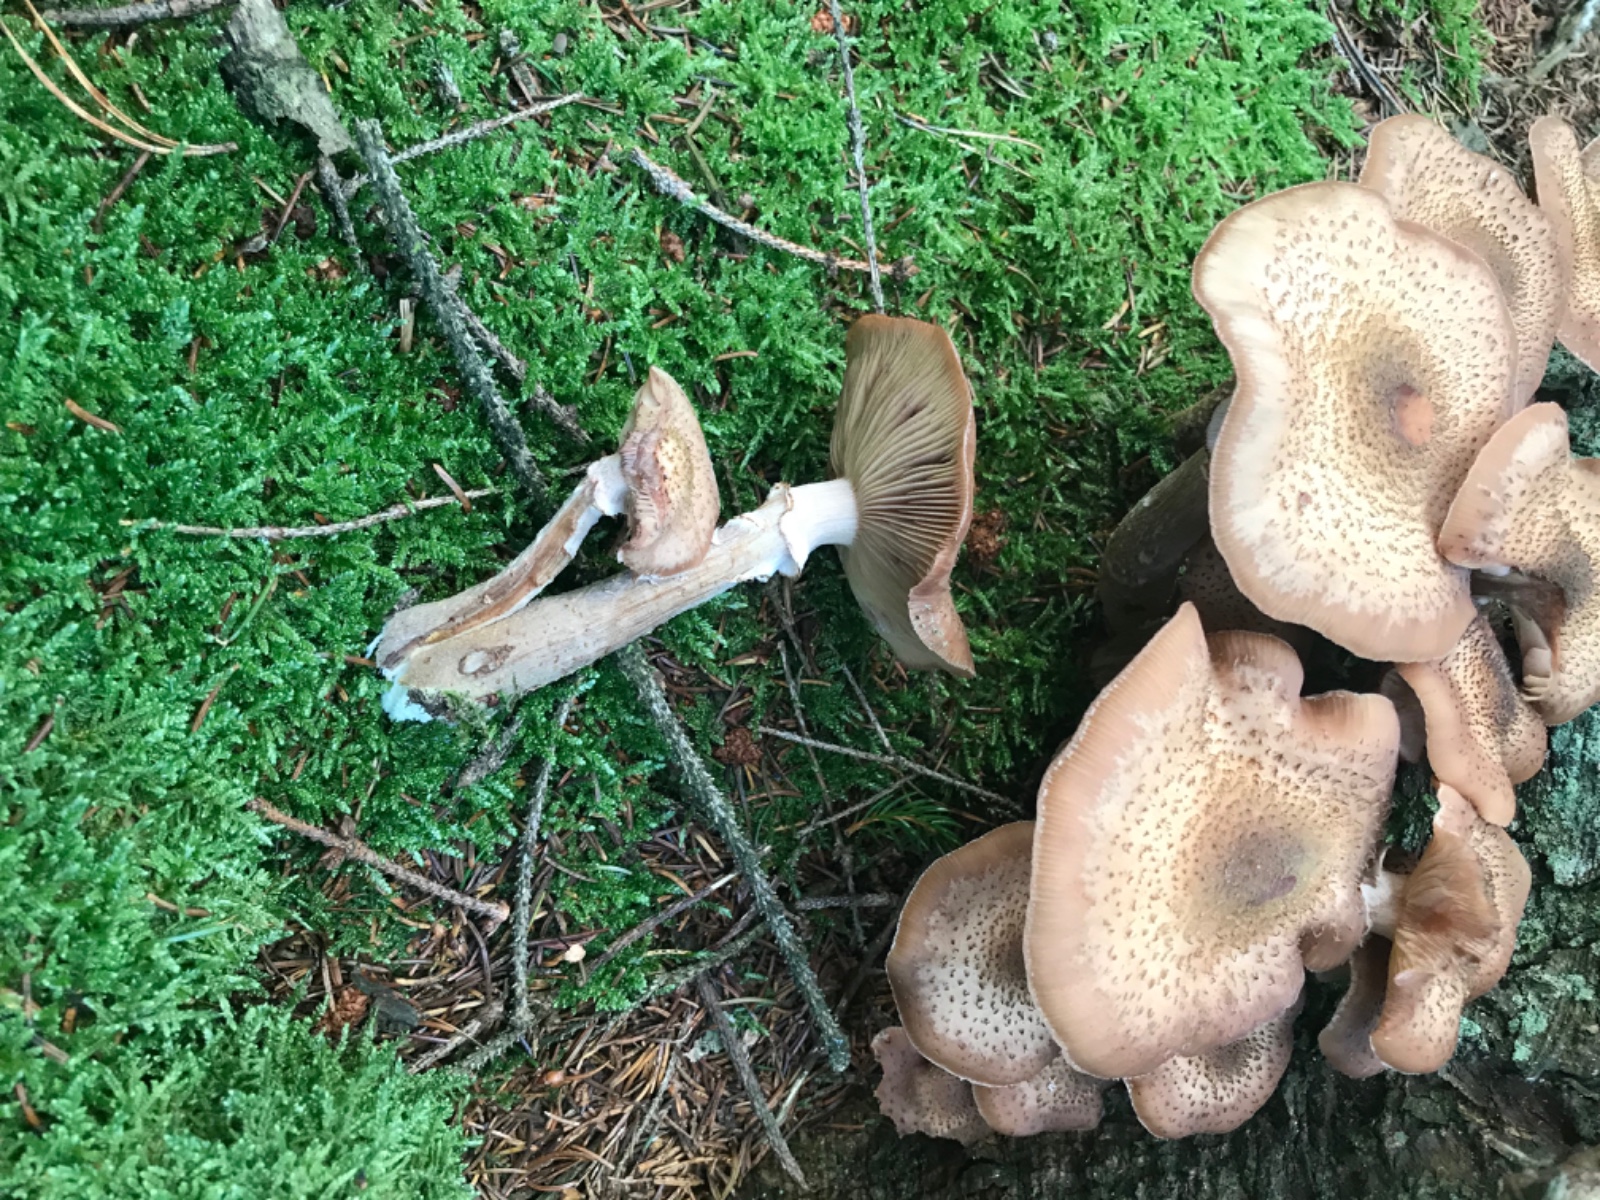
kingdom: Fungi
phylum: Basidiomycota
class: Agaricomycetes
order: Agaricales
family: Physalacriaceae
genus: Armillaria
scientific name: Armillaria ostoyae
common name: mørk honningsvamp
